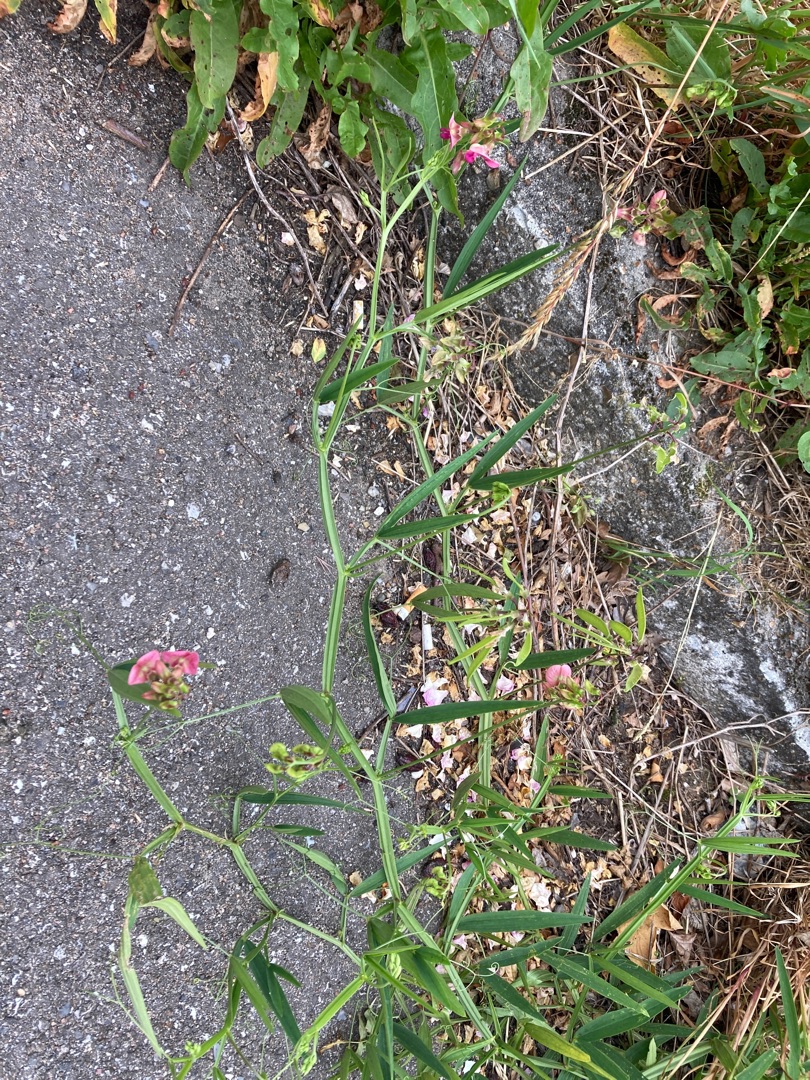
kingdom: Plantae
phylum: Tracheophyta
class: Magnoliopsida
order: Fabales
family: Fabaceae
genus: Lathyrus
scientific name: Lathyrus sylvestris
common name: Skov-fladbælg
